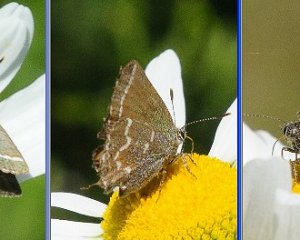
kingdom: Animalia
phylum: Arthropoda
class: Insecta
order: Lepidoptera
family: Lycaenidae
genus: Mitoura
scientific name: Mitoura gryneus
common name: Juniper Hairstreak
